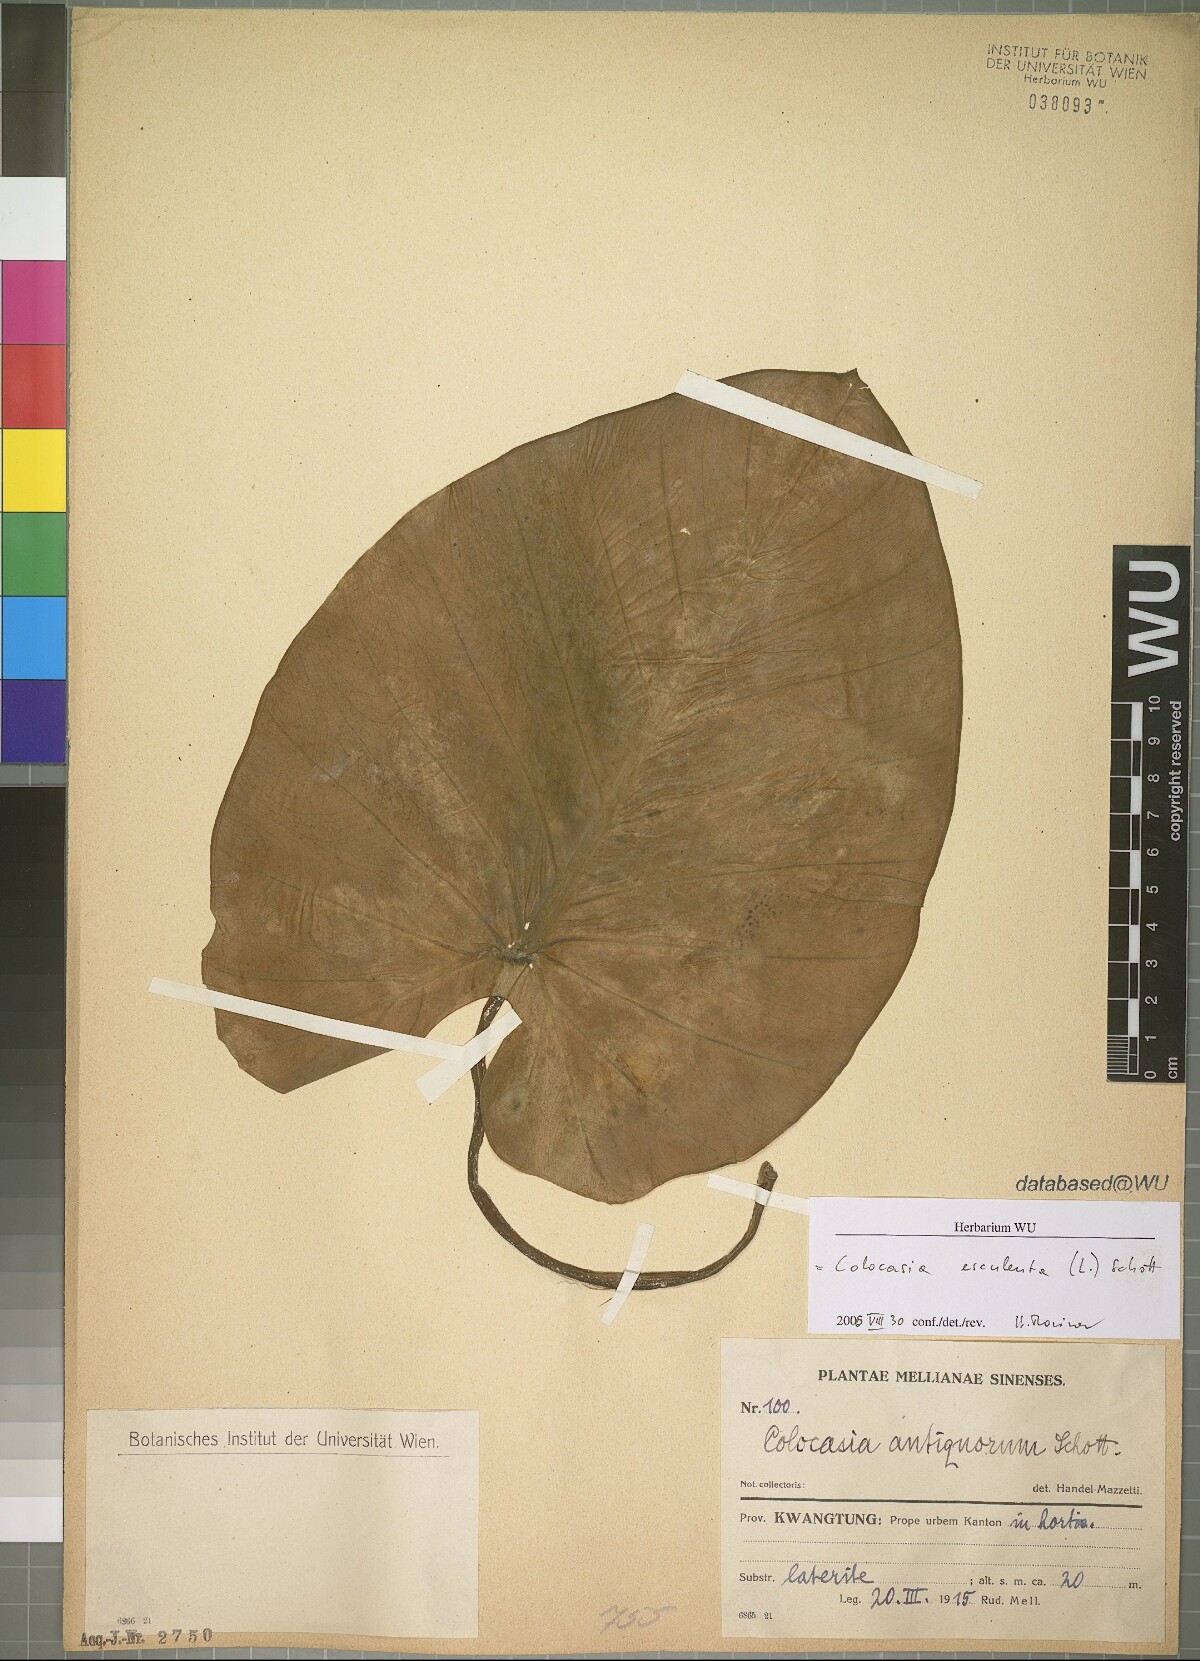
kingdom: Plantae
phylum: Tracheophyta
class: Liliopsida
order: Alismatales
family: Araceae
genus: Colocasia
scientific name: Colocasia esculenta
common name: Taro
